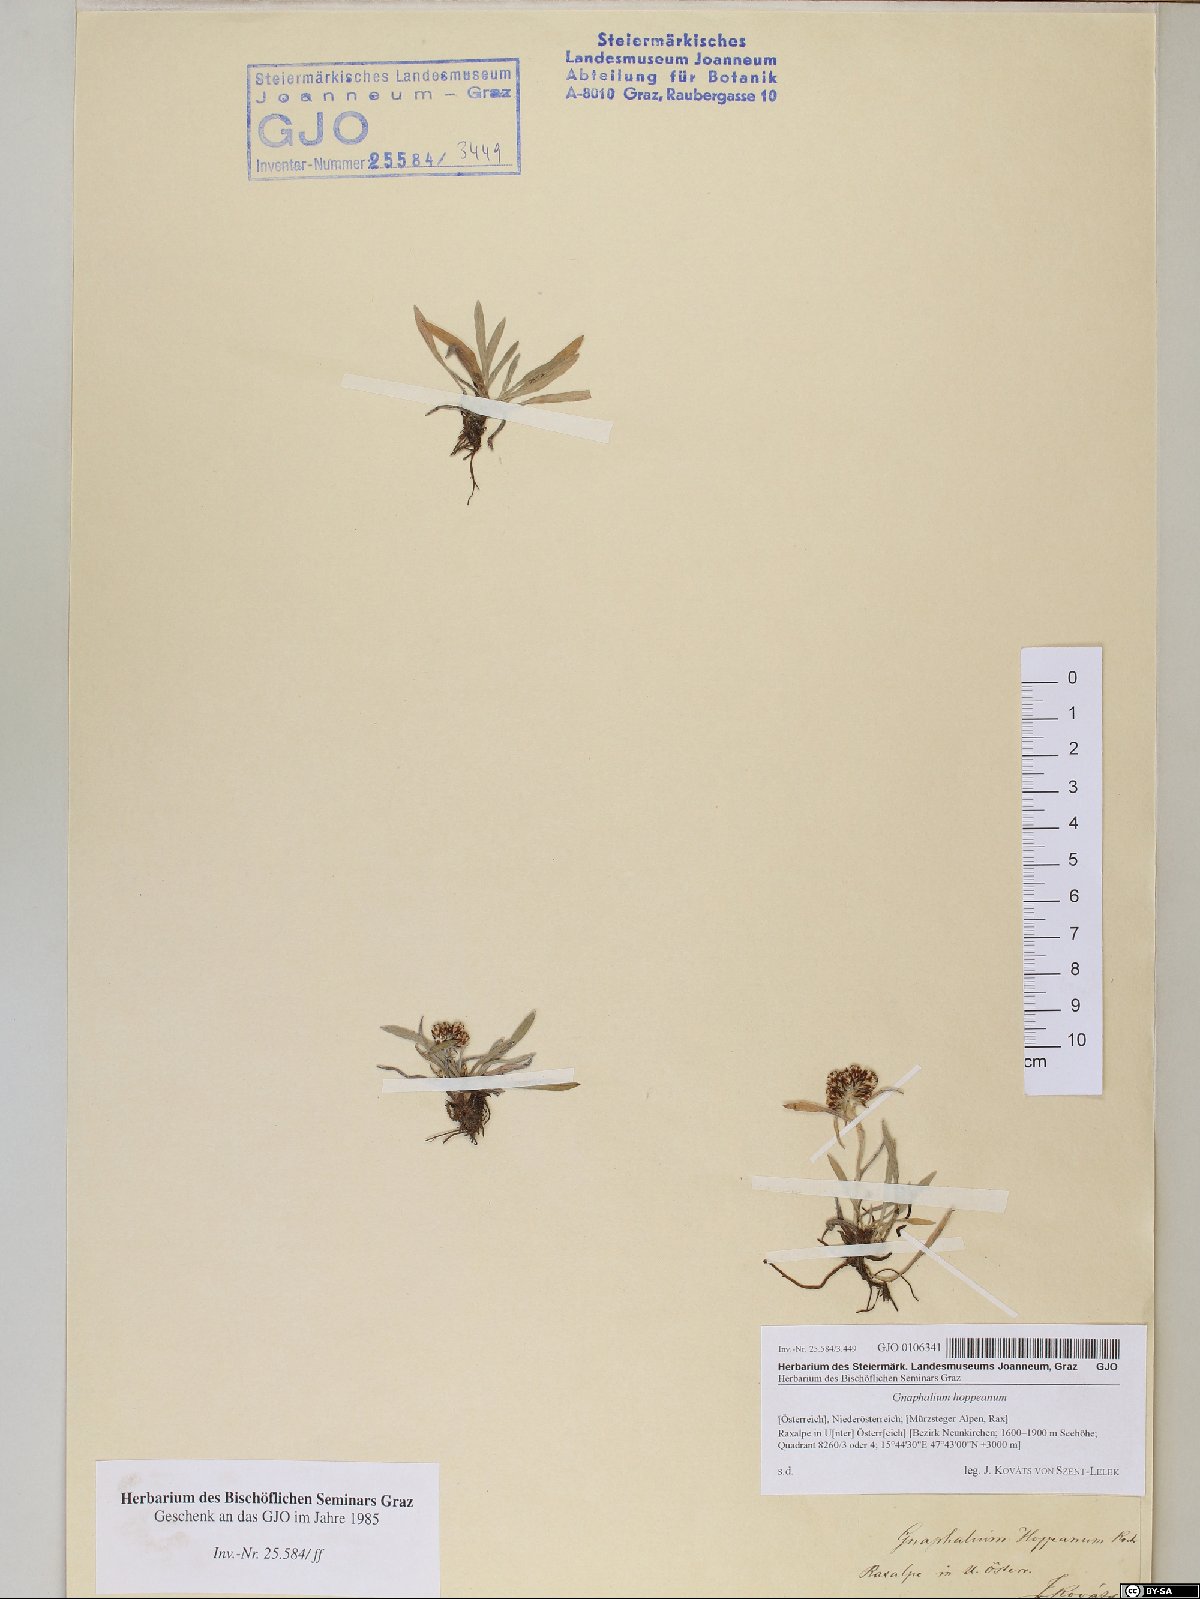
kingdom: Plantae
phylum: Tracheophyta
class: Magnoliopsida
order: Asterales
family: Asteraceae
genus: Omalotheca
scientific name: Omalotheca hoppeana
